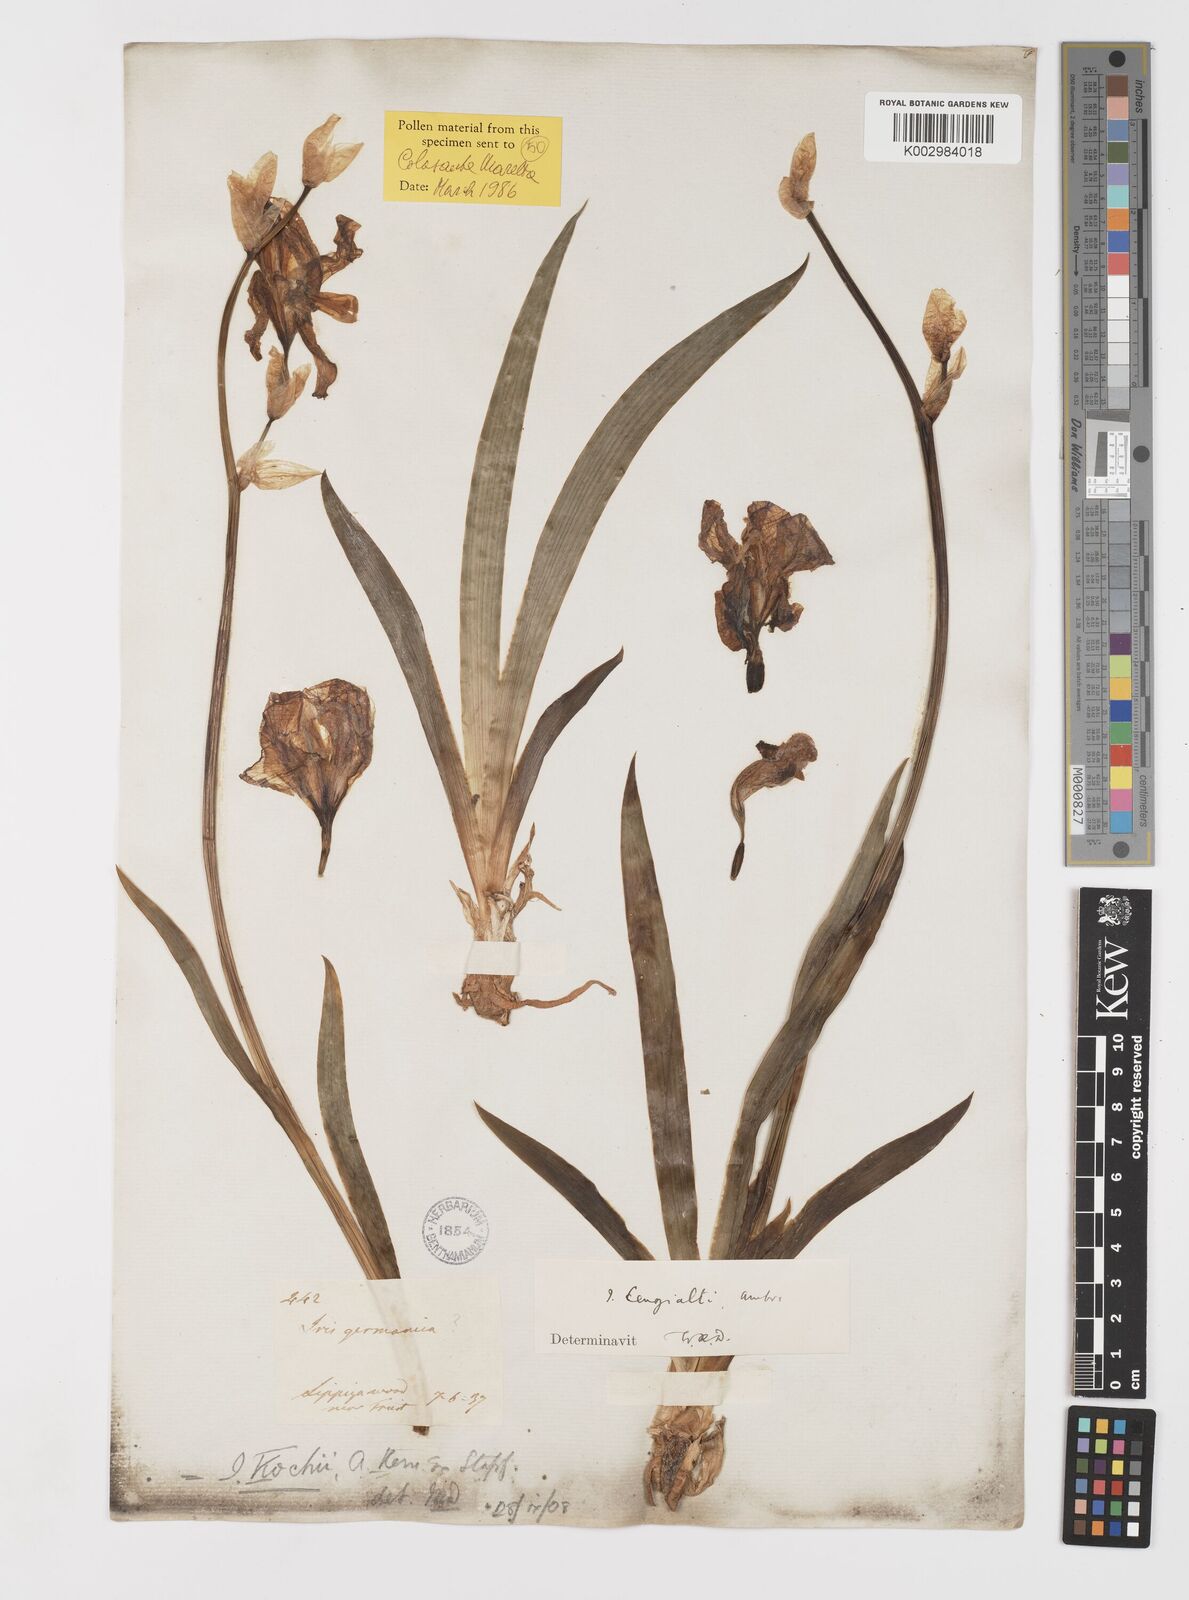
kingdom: Plantae
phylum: Tracheophyta
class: Liliopsida
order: Asparagales
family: Iridaceae
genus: Iris
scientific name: Iris pallida
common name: Sweet iris
